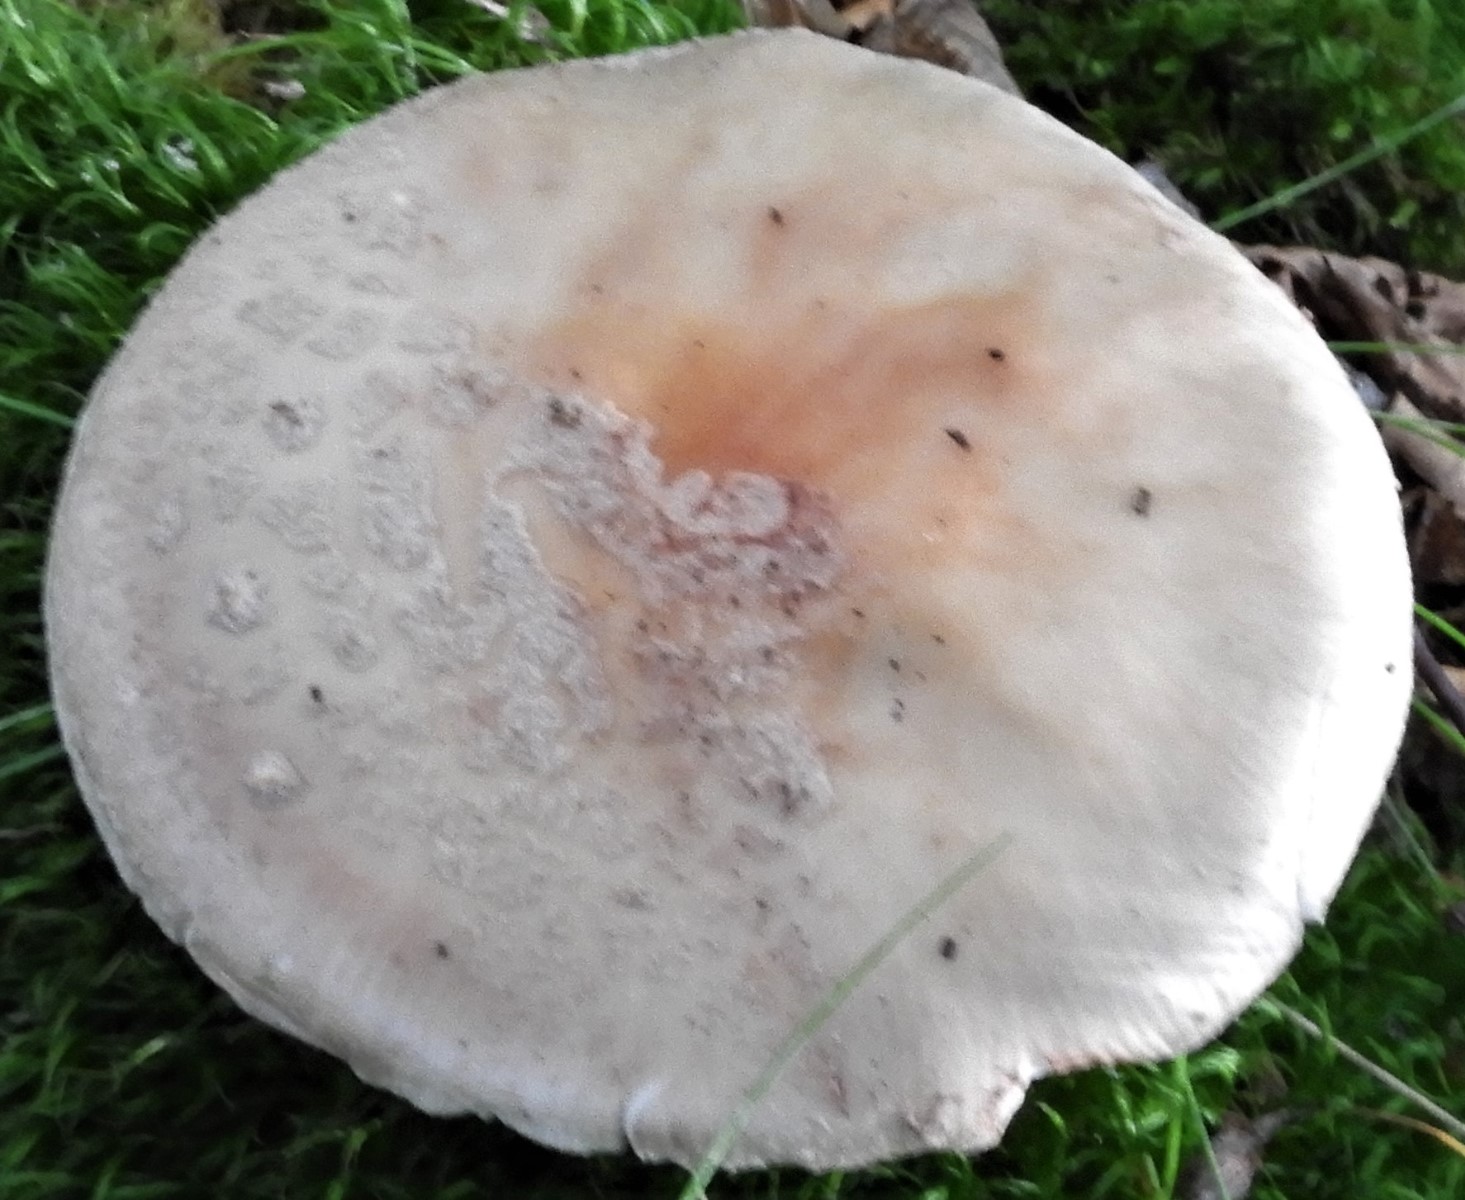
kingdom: Fungi
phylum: Basidiomycota
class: Agaricomycetes
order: Agaricales
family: Amanitaceae
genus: Amanita
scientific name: Amanita rubescens
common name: rødmende fluesvamp
